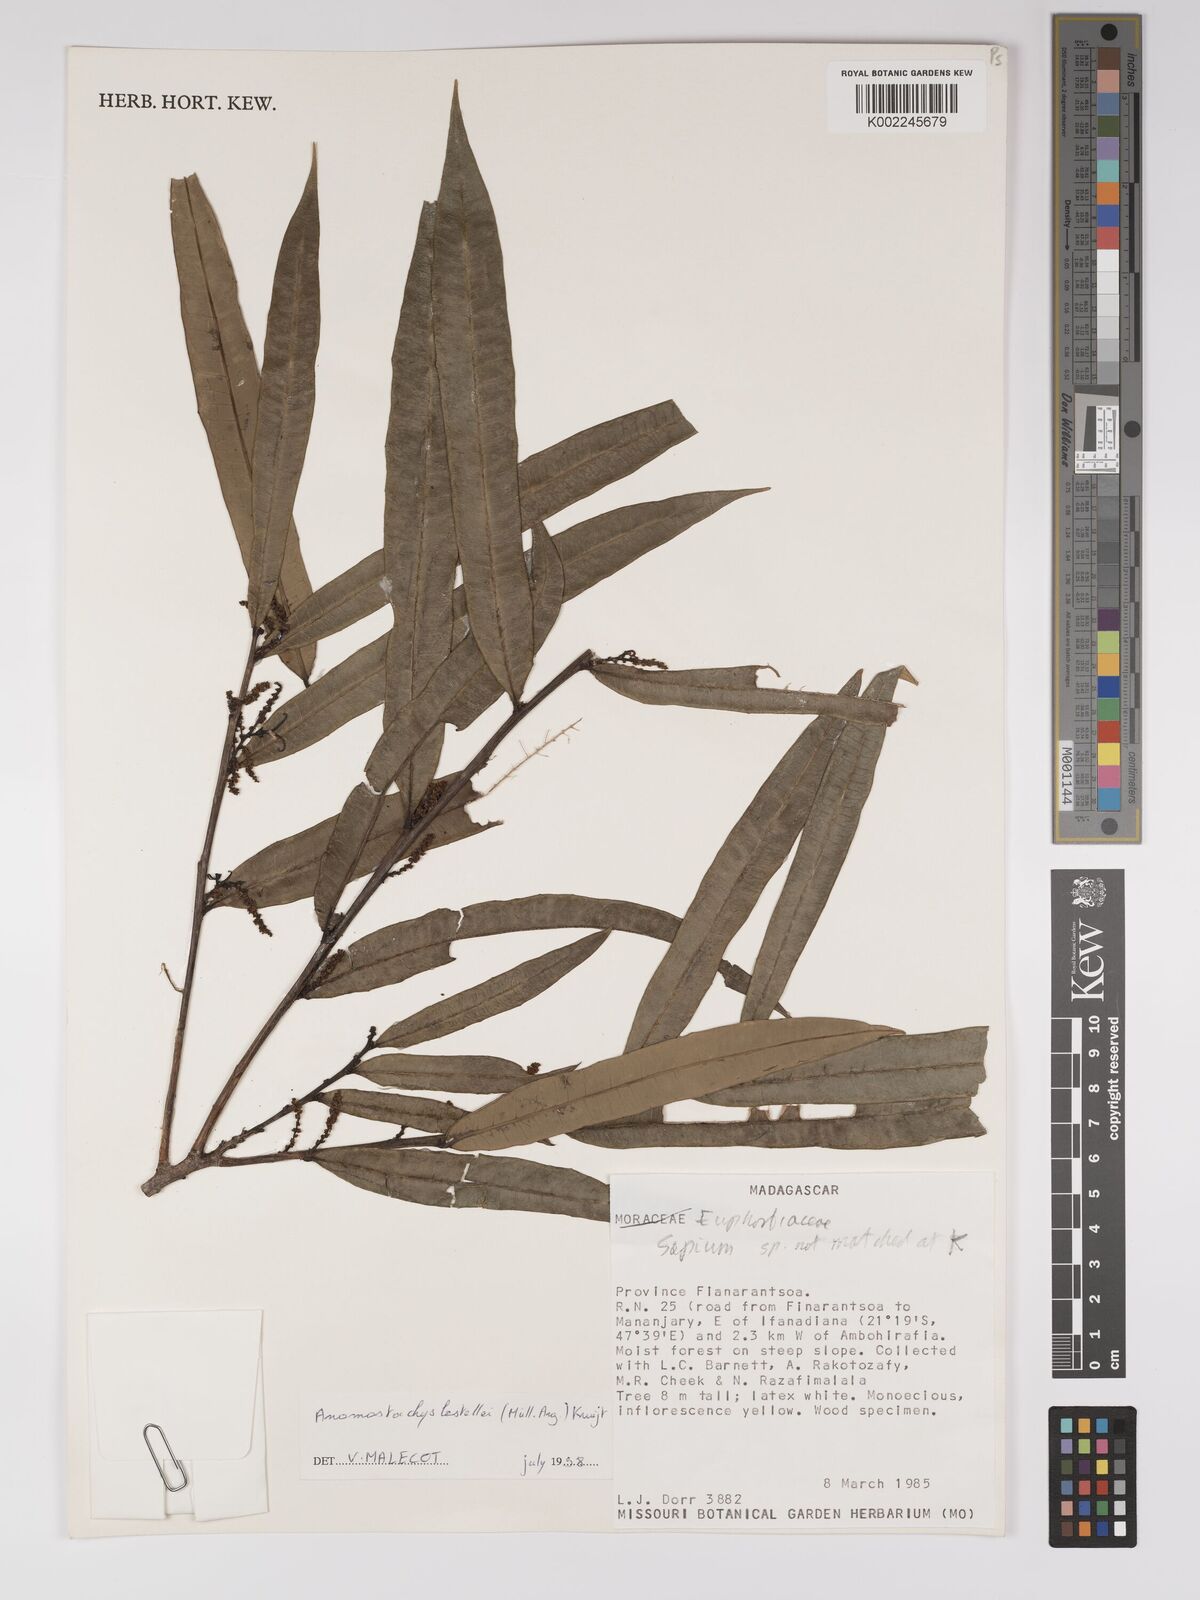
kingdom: Plantae
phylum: Tracheophyta
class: Magnoliopsida
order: Malpighiales
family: Euphorbiaceae
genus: Anomostachys
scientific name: Anomostachys lastellei
